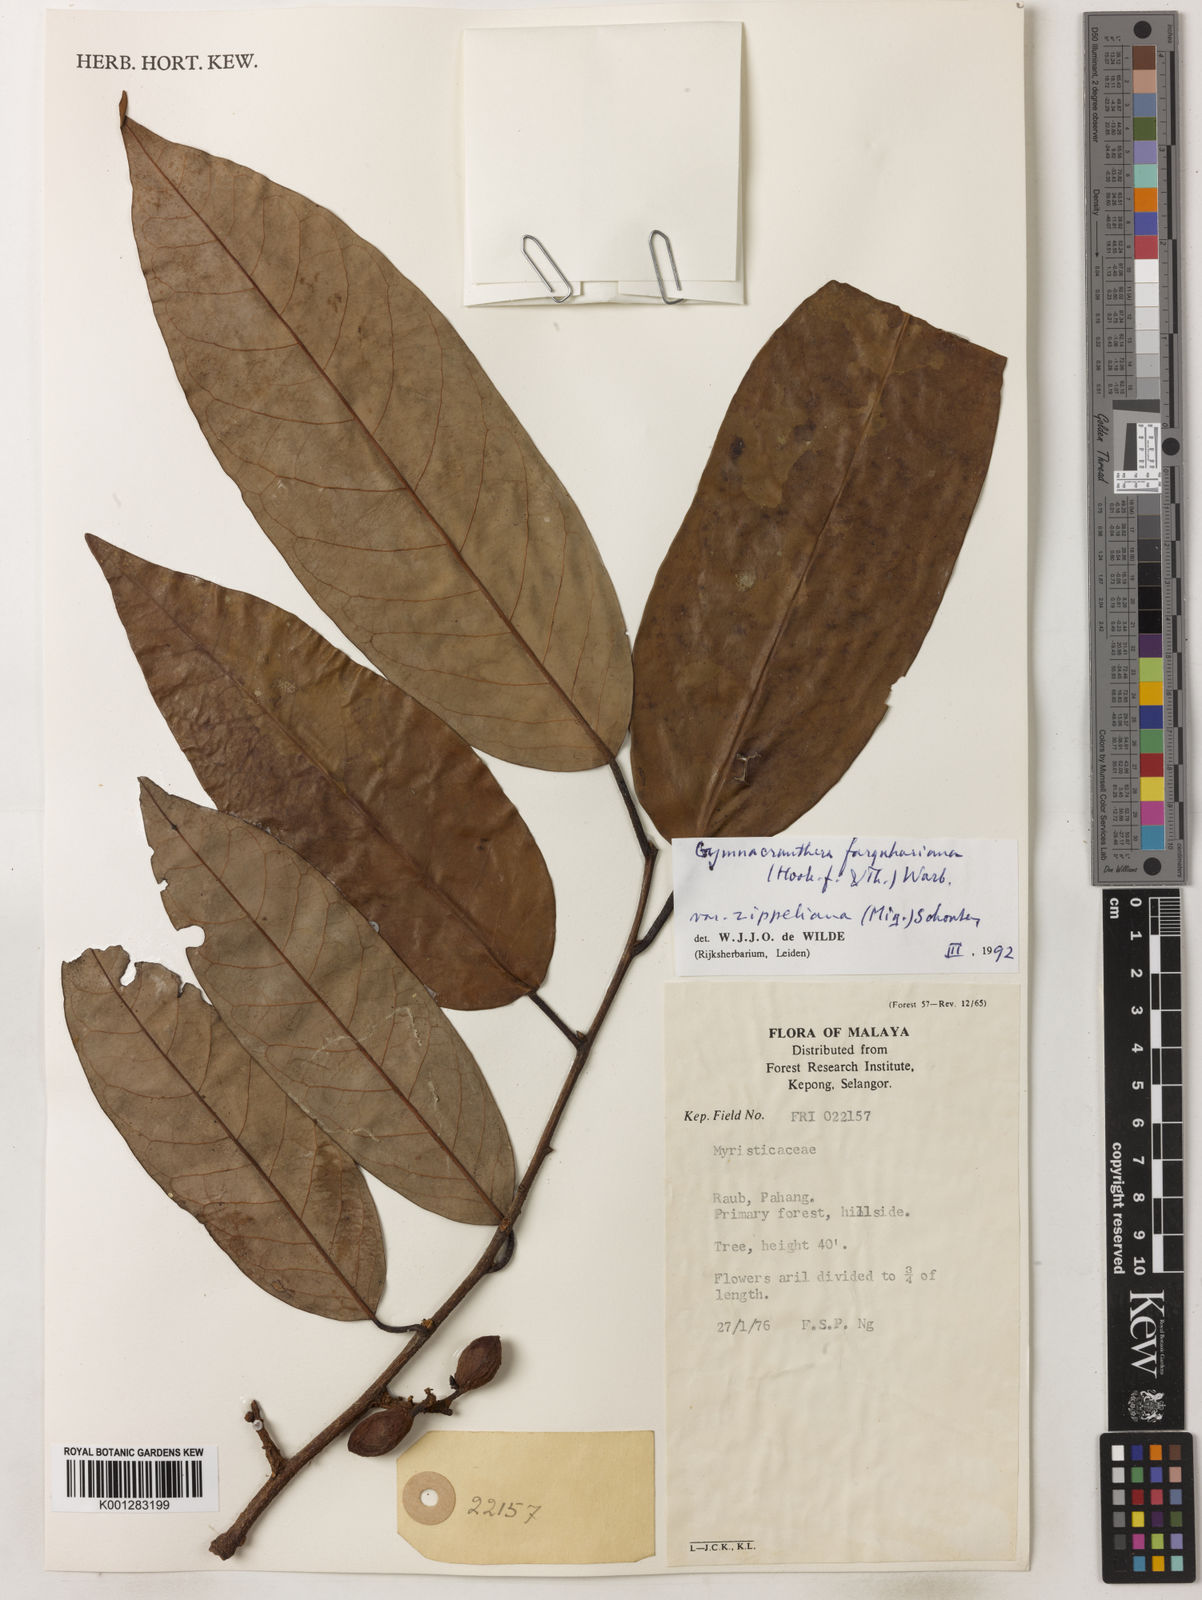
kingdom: Plantae
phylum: Tracheophyta
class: Magnoliopsida
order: Magnoliales
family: Myristicaceae
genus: Gymnacranthera
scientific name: Gymnacranthera farquhariana
